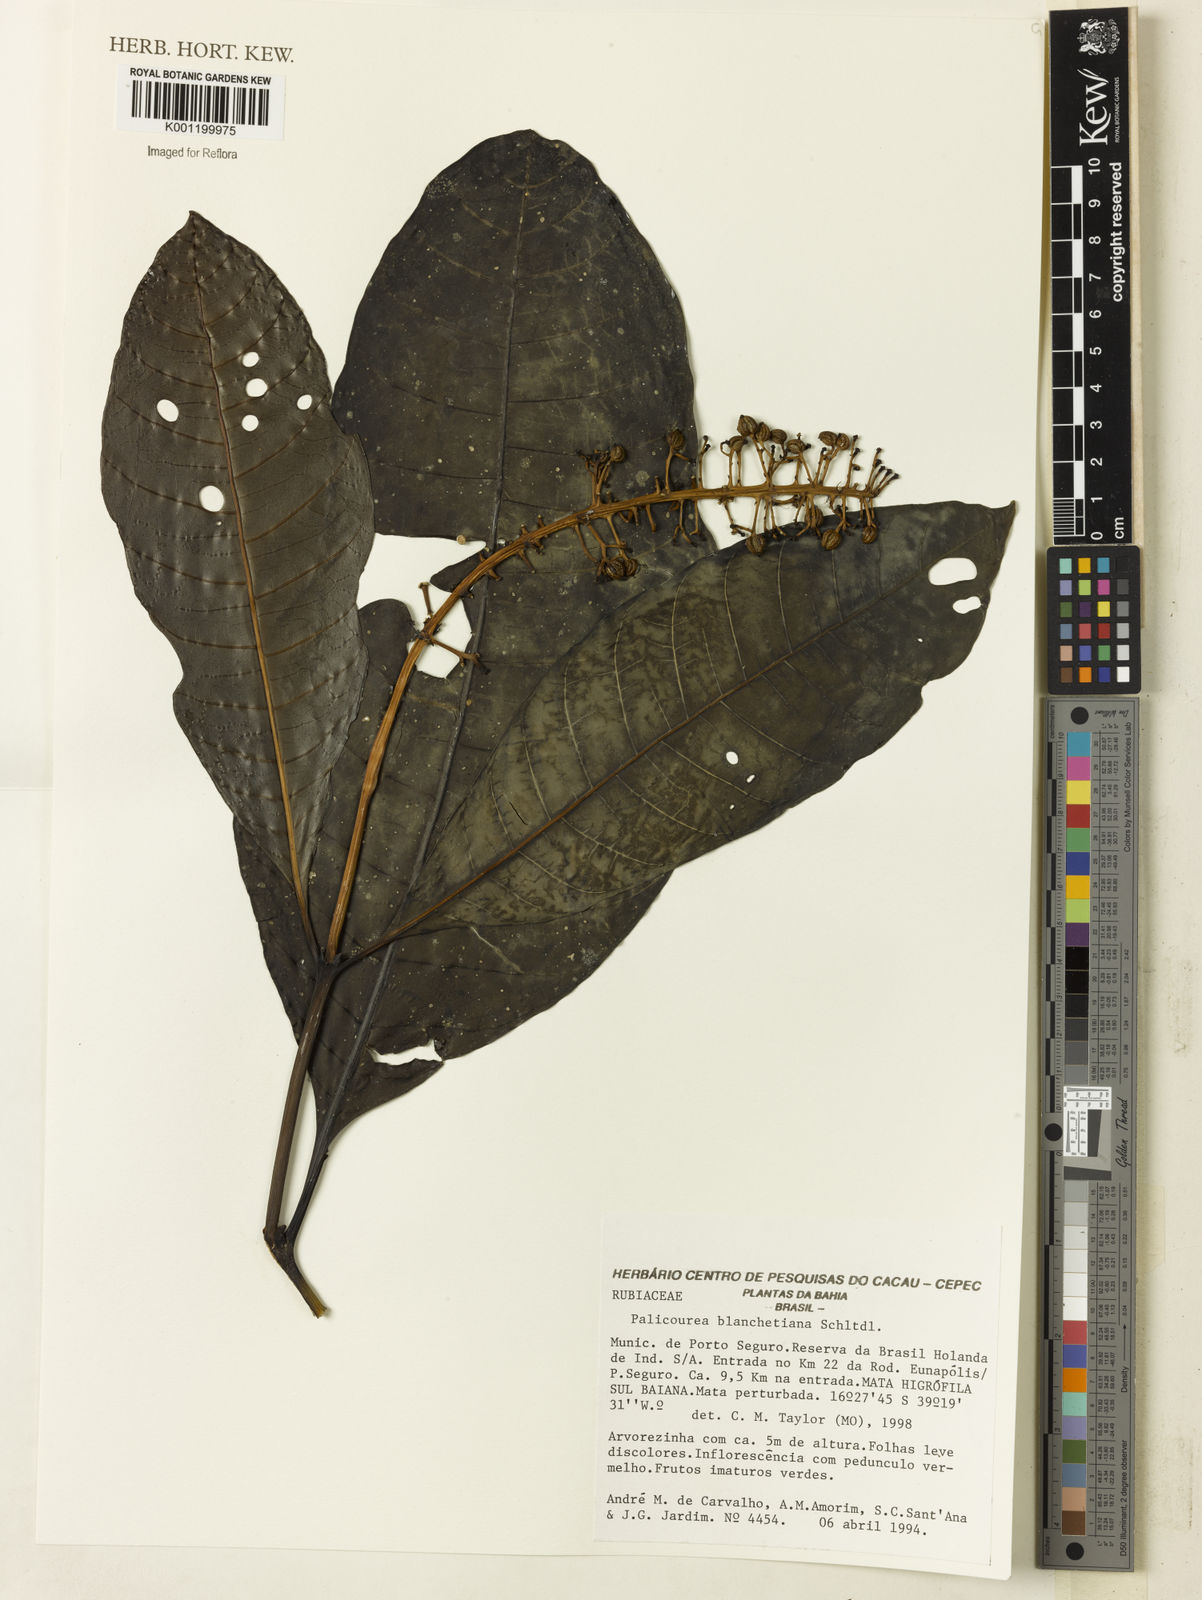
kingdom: Plantae
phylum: Tracheophyta
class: Magnoliopsida
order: Gentianales
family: Rubiaceae
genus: Palicourea
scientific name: Palicourea blanchetiana
